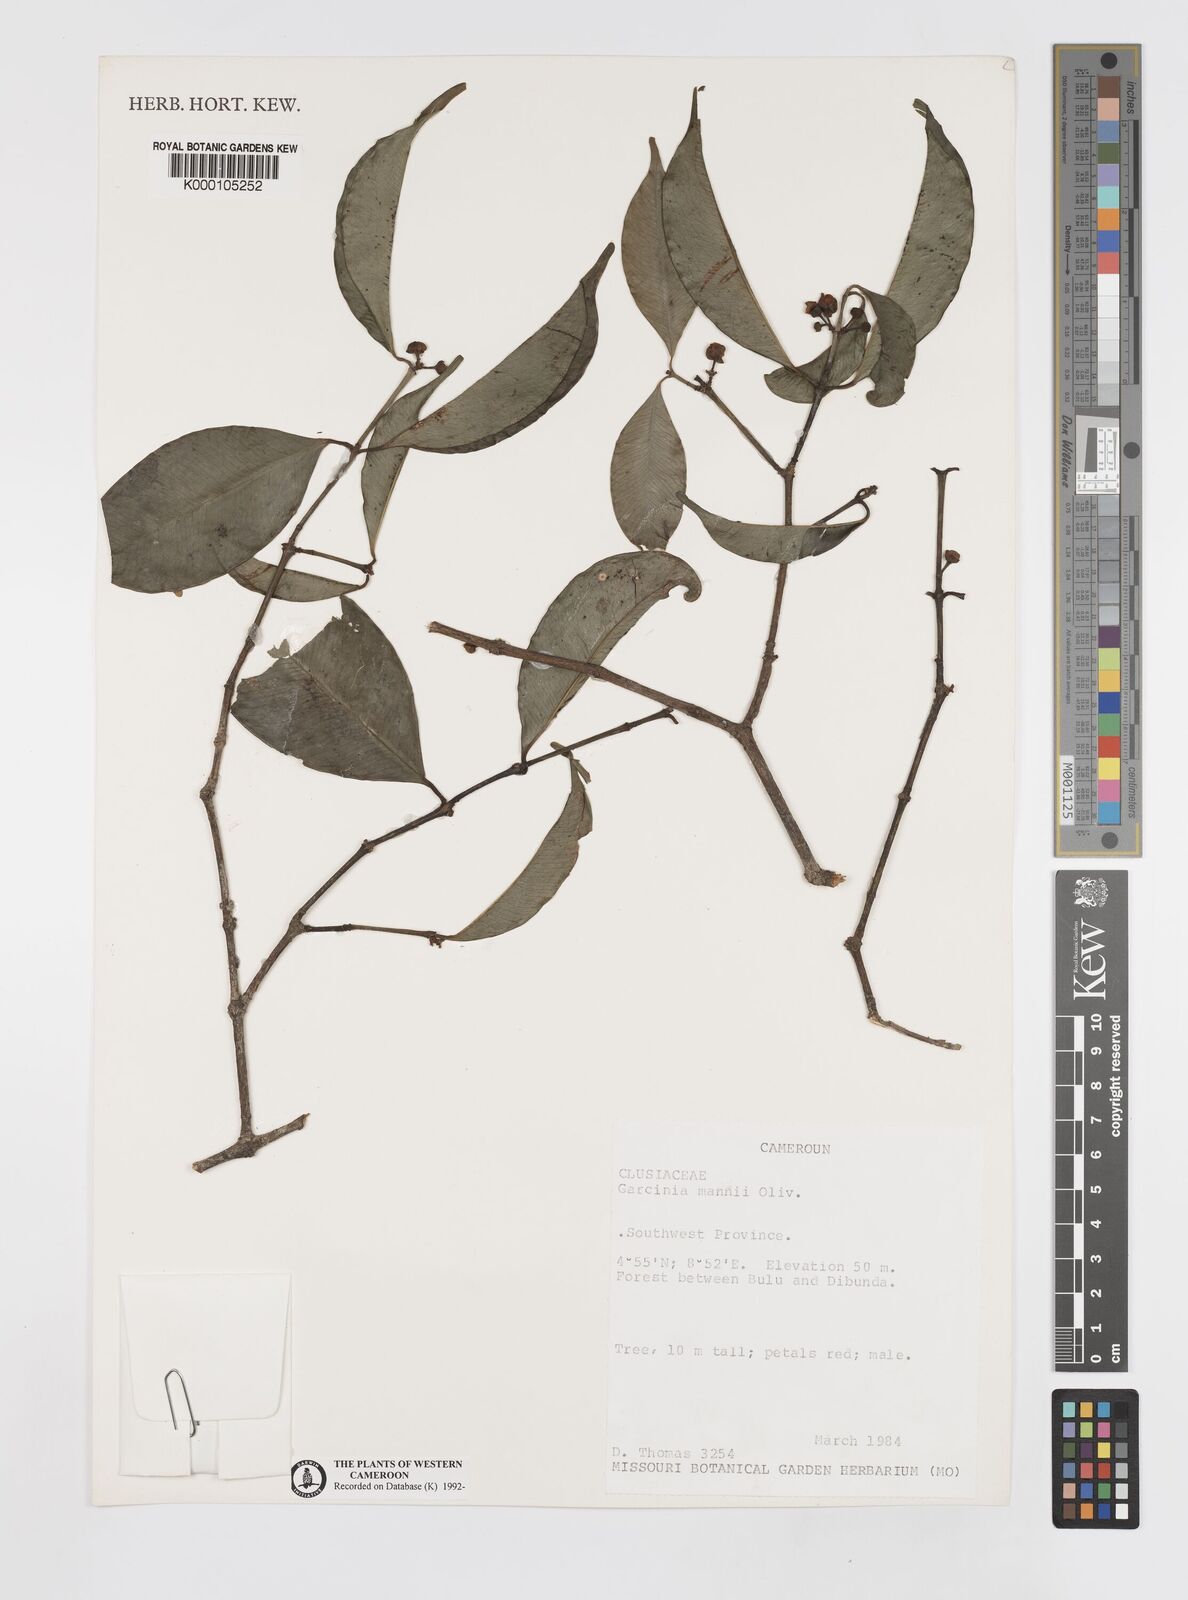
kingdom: Plantae
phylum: Tracheophyta
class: Magnoliopsida
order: Malpighiales
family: Clusiaceae
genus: Garcinia
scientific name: Garcinia mannii
